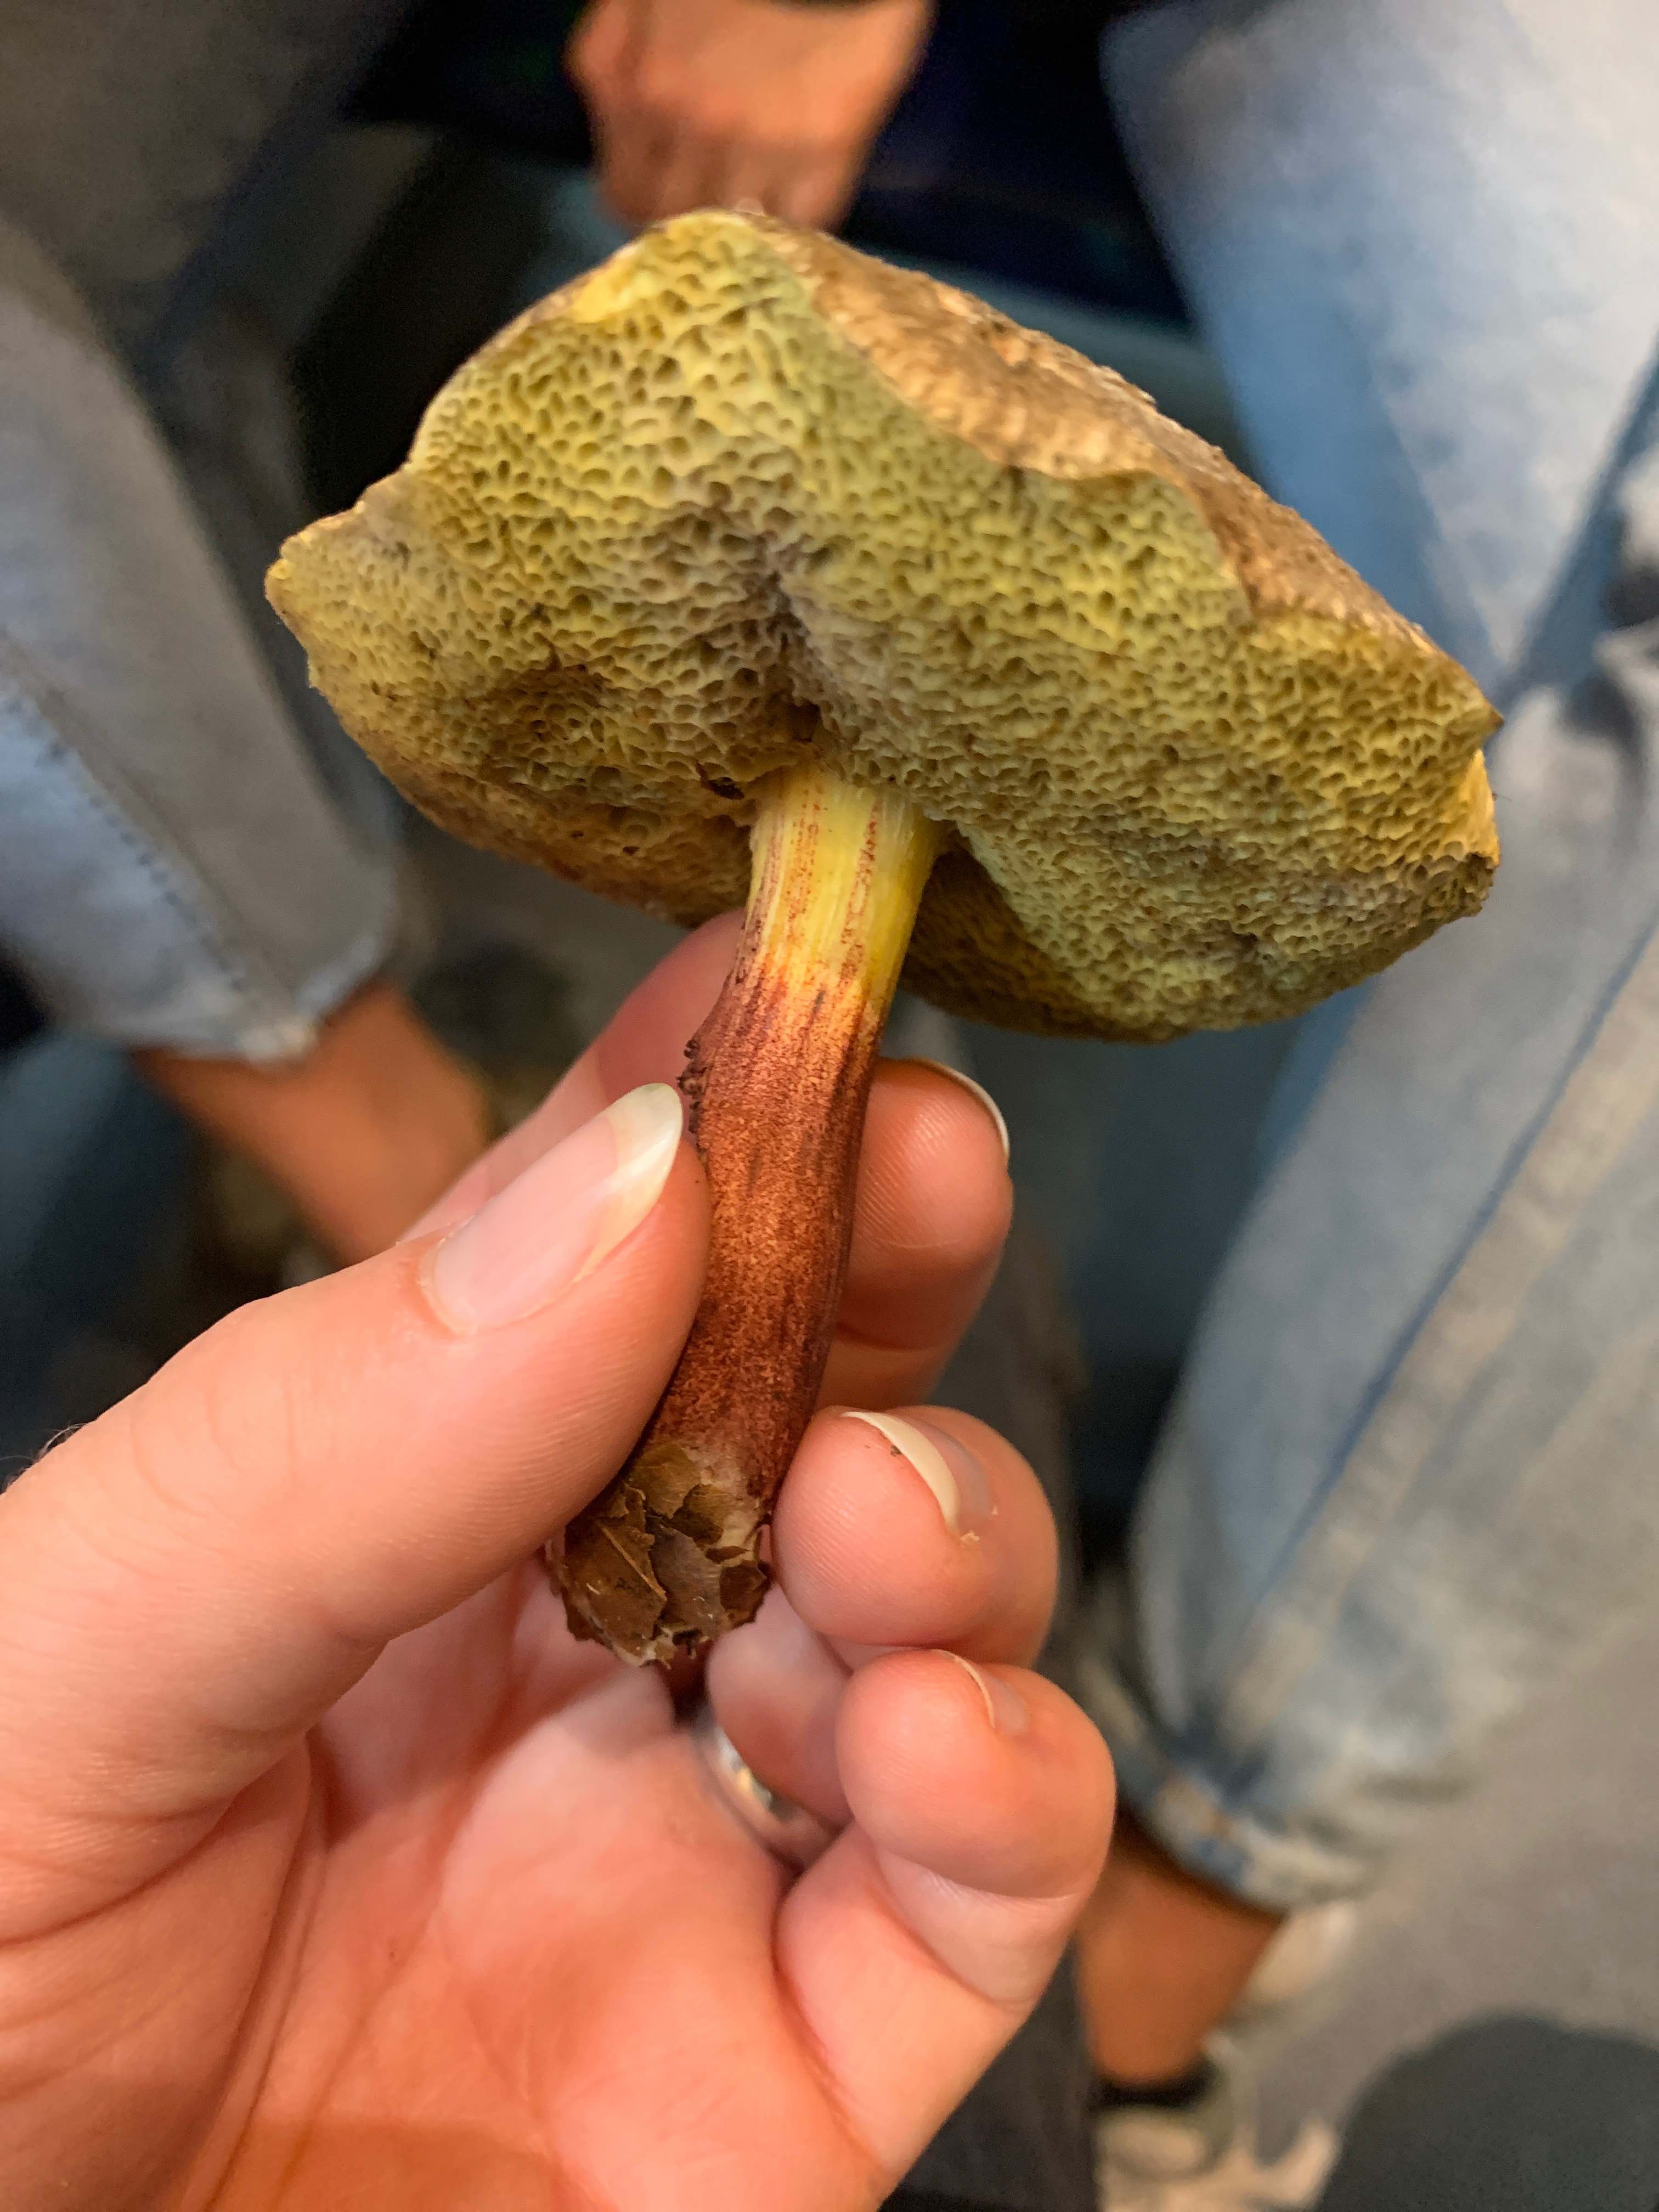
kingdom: Fungi
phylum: Basidiomycota
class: Agaricomycetes
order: Boletales
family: Boletaceae
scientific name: Boletaceae
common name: rørhatfamilien
